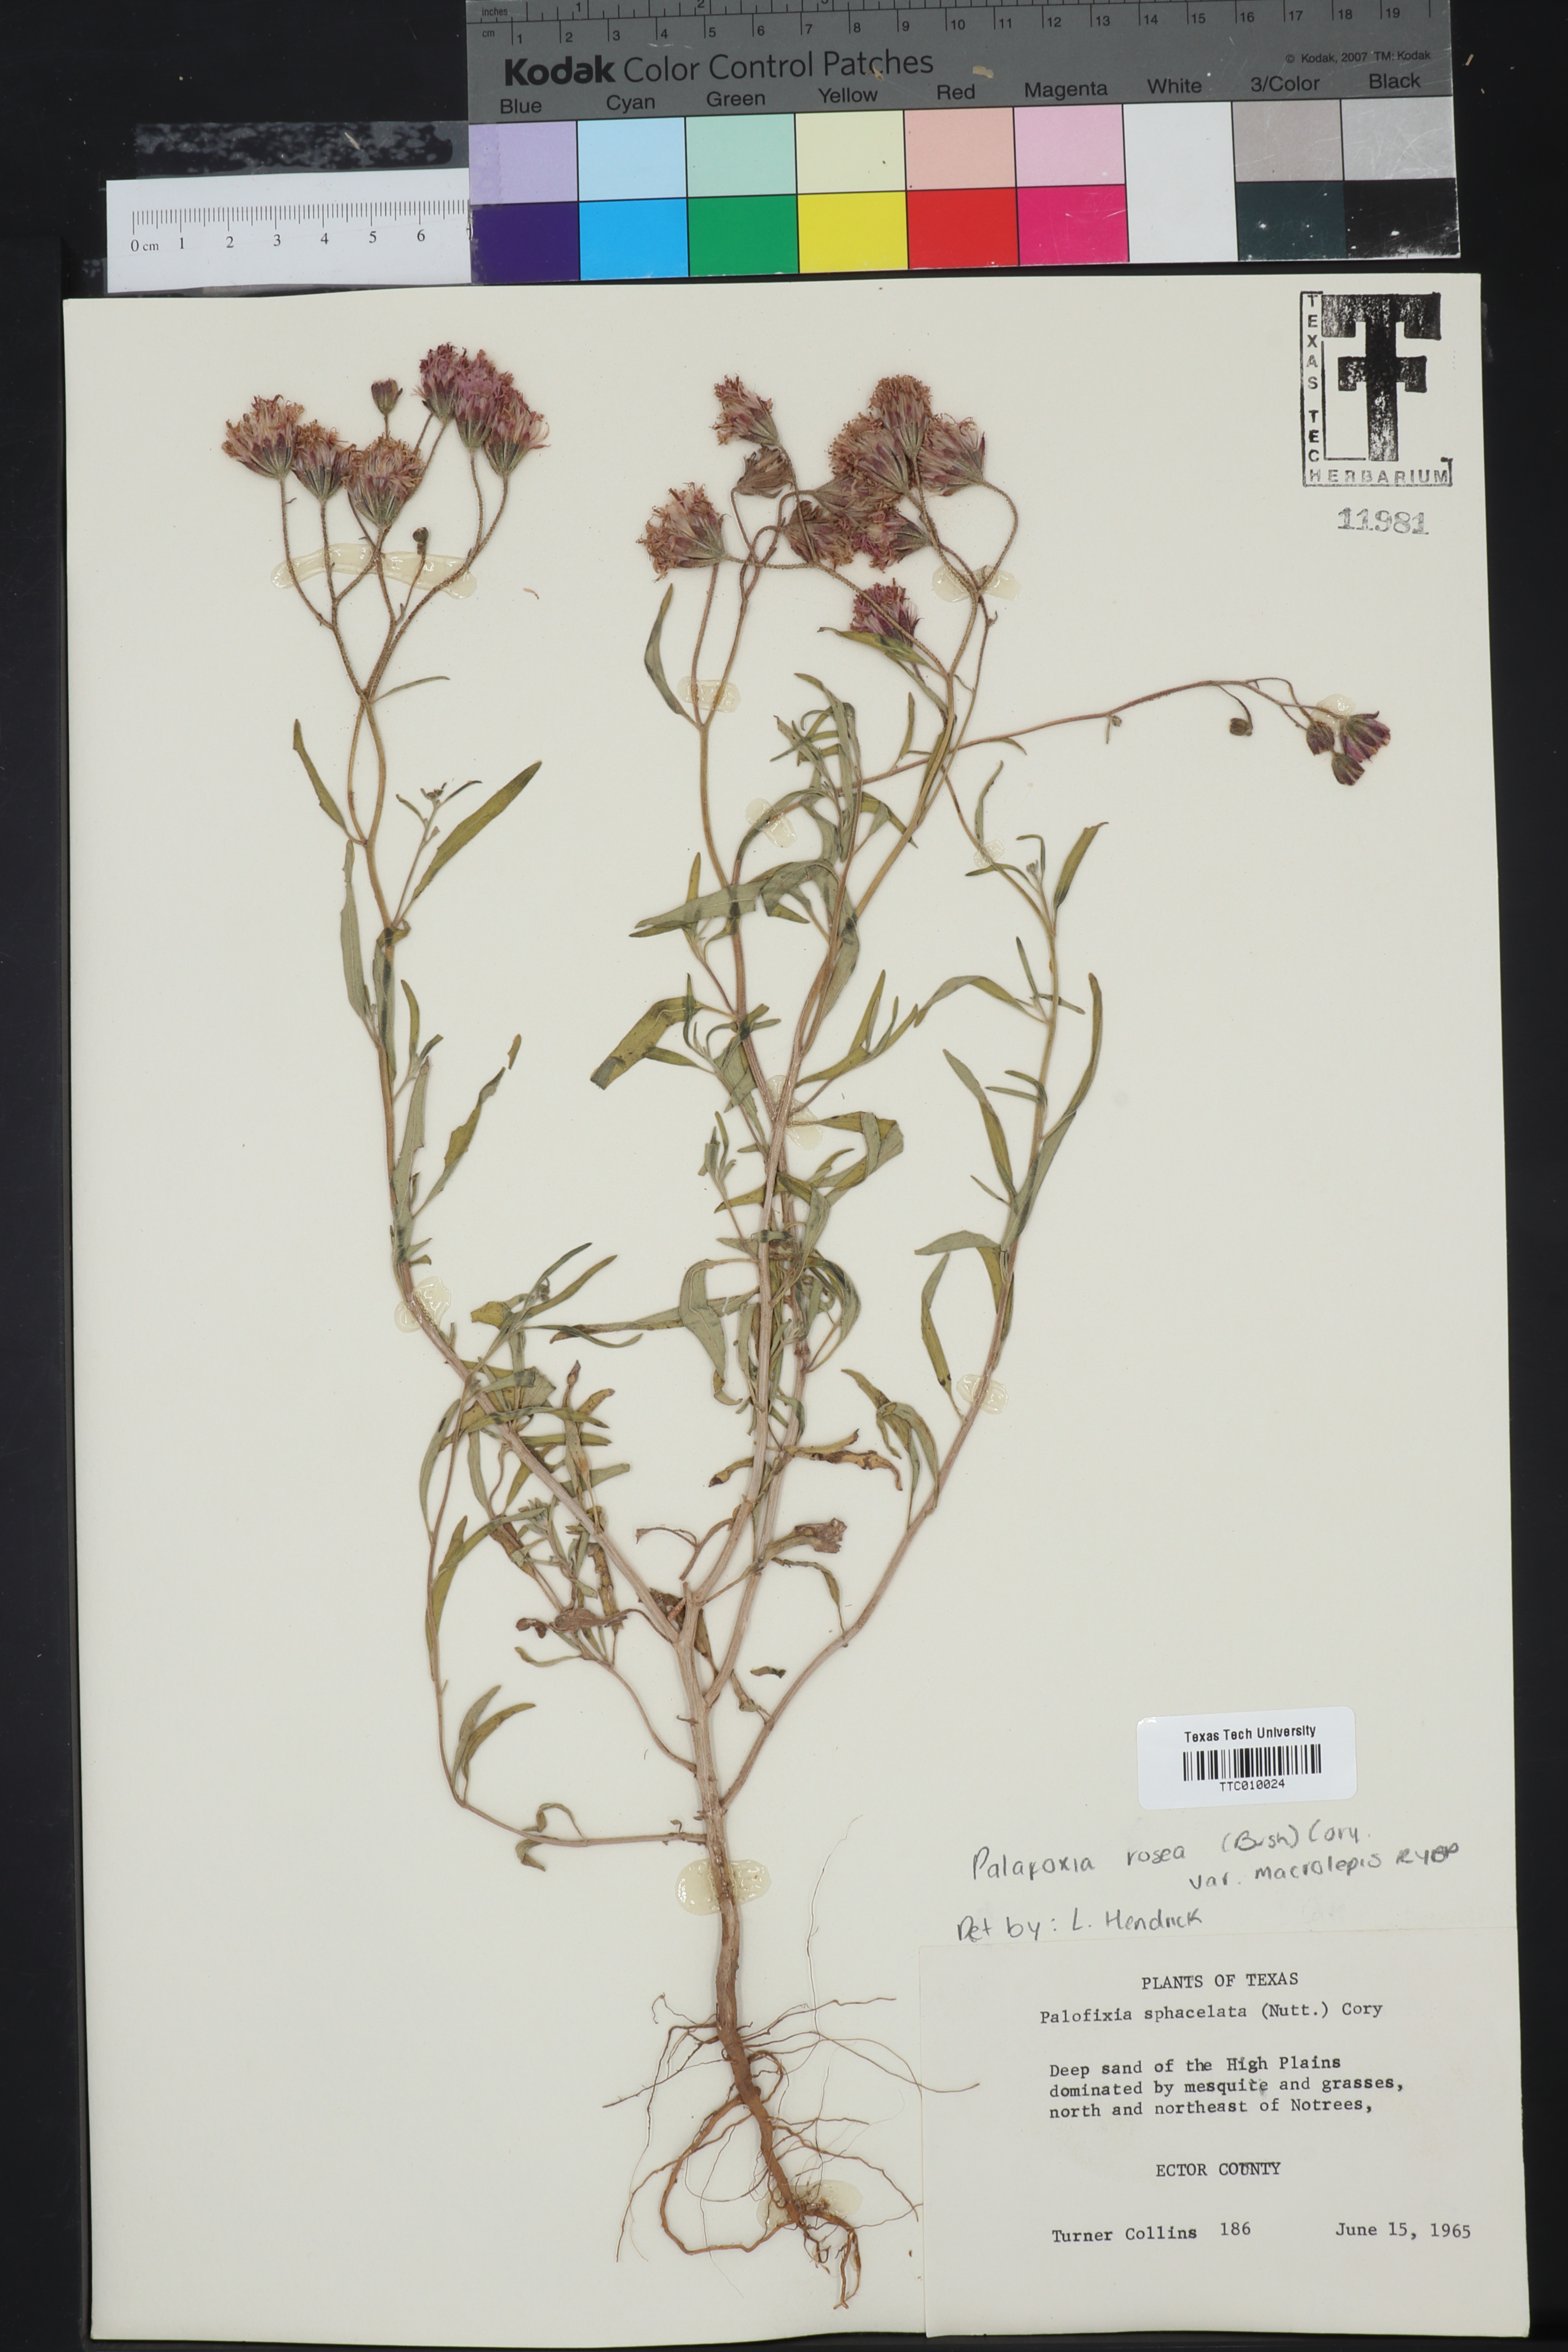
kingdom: Plantae
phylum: Tracheophyta
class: Magnoliopsida
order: Asterales
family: Asteraceae
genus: Palafoxia
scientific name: Palafoxia rosea
